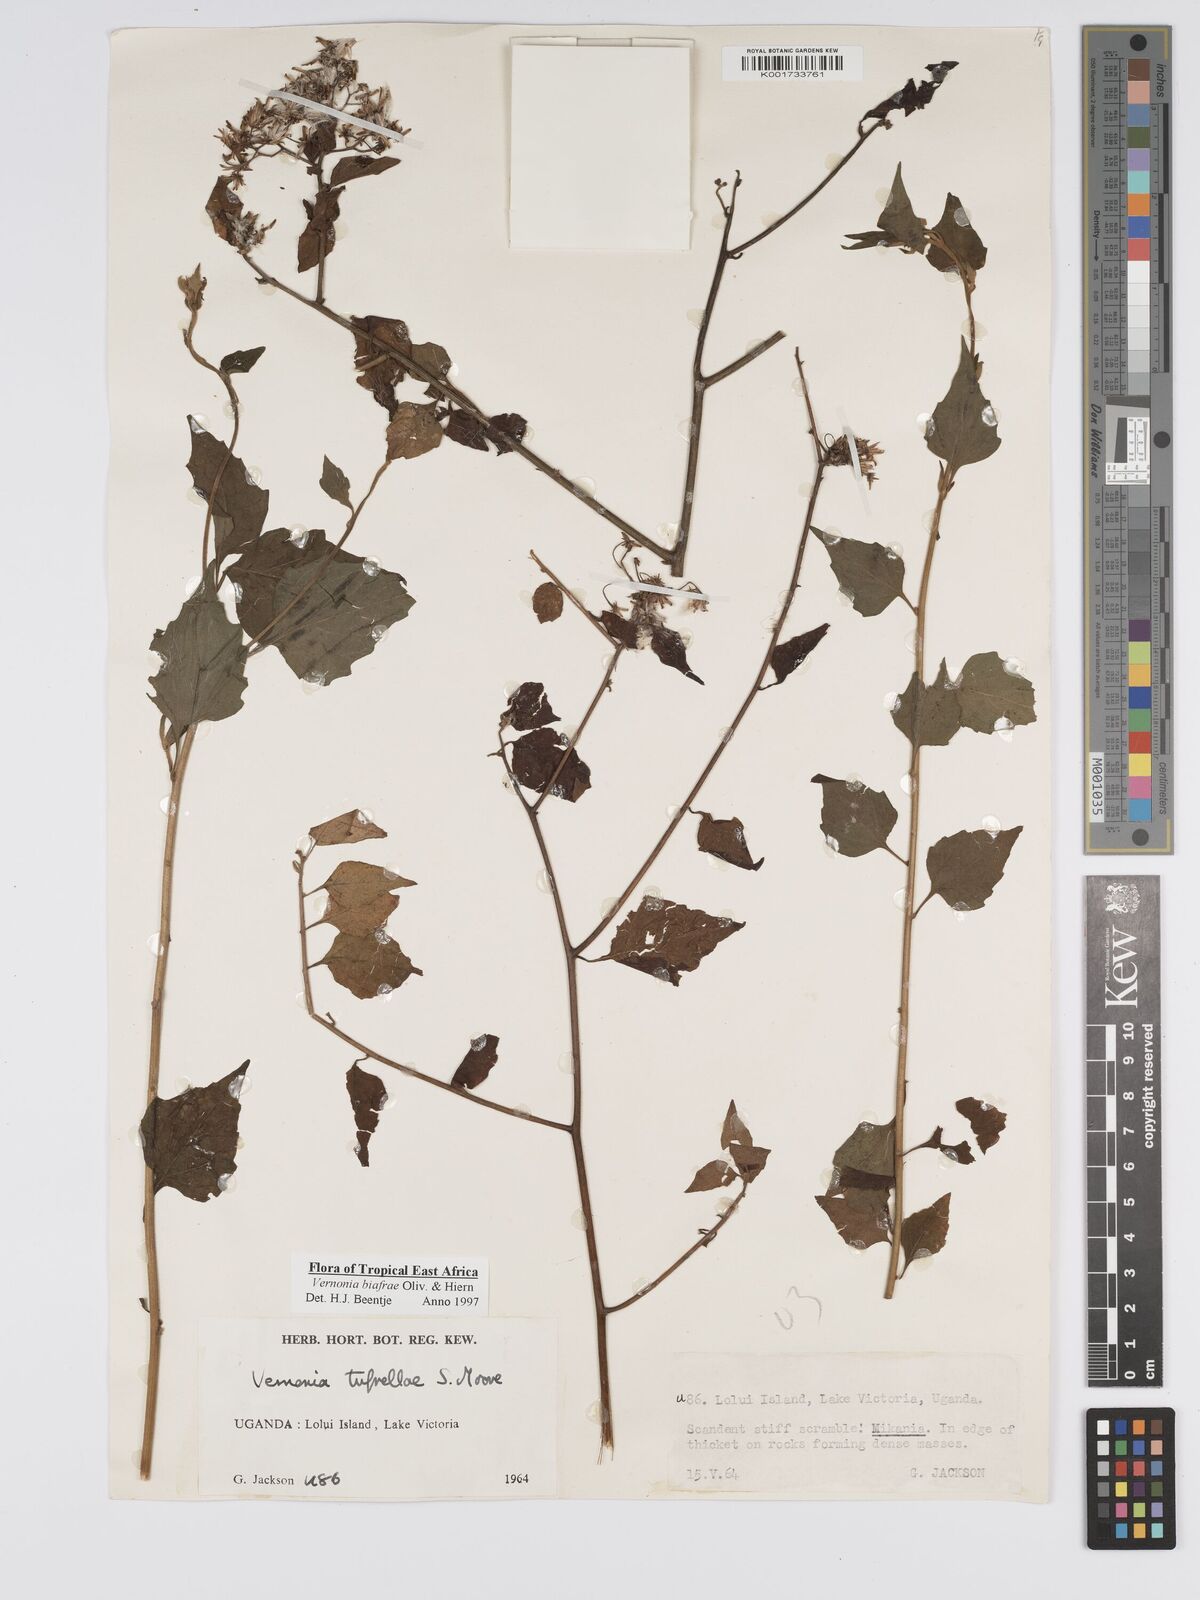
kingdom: Plantae
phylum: Tracheophyta
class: Magnoliopsida
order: Asterales
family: Asteraceae
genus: Distephanus
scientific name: Distephanus biafrae
